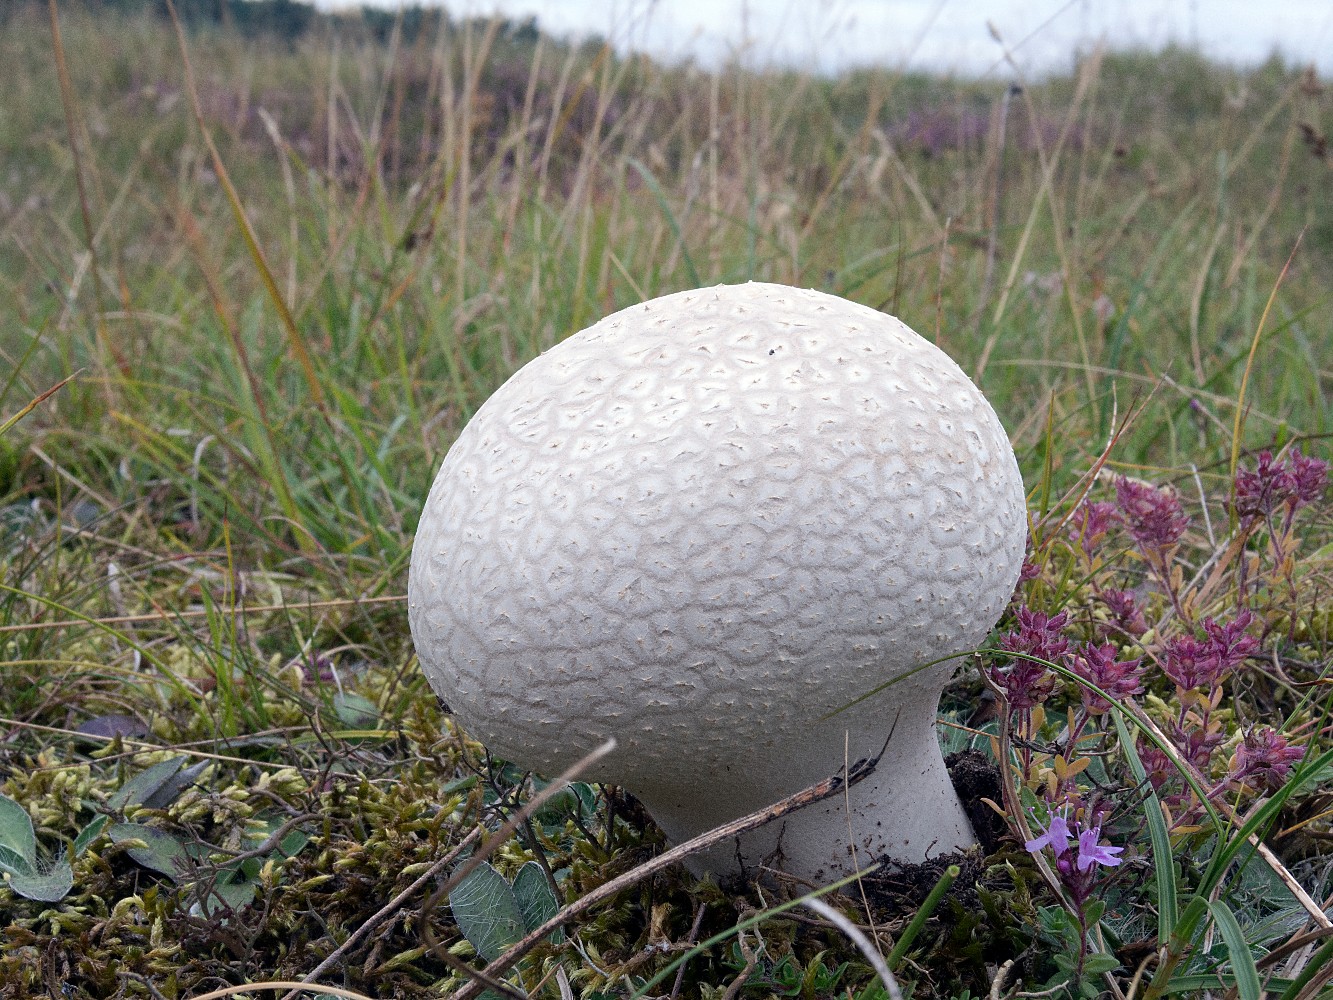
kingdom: Fungi
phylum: Basidiomycota
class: Agaricomycetes
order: Agaricales
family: Lycoperdaceae
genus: Bovistella
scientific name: Bovistella utriformis
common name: skællet støvbold
